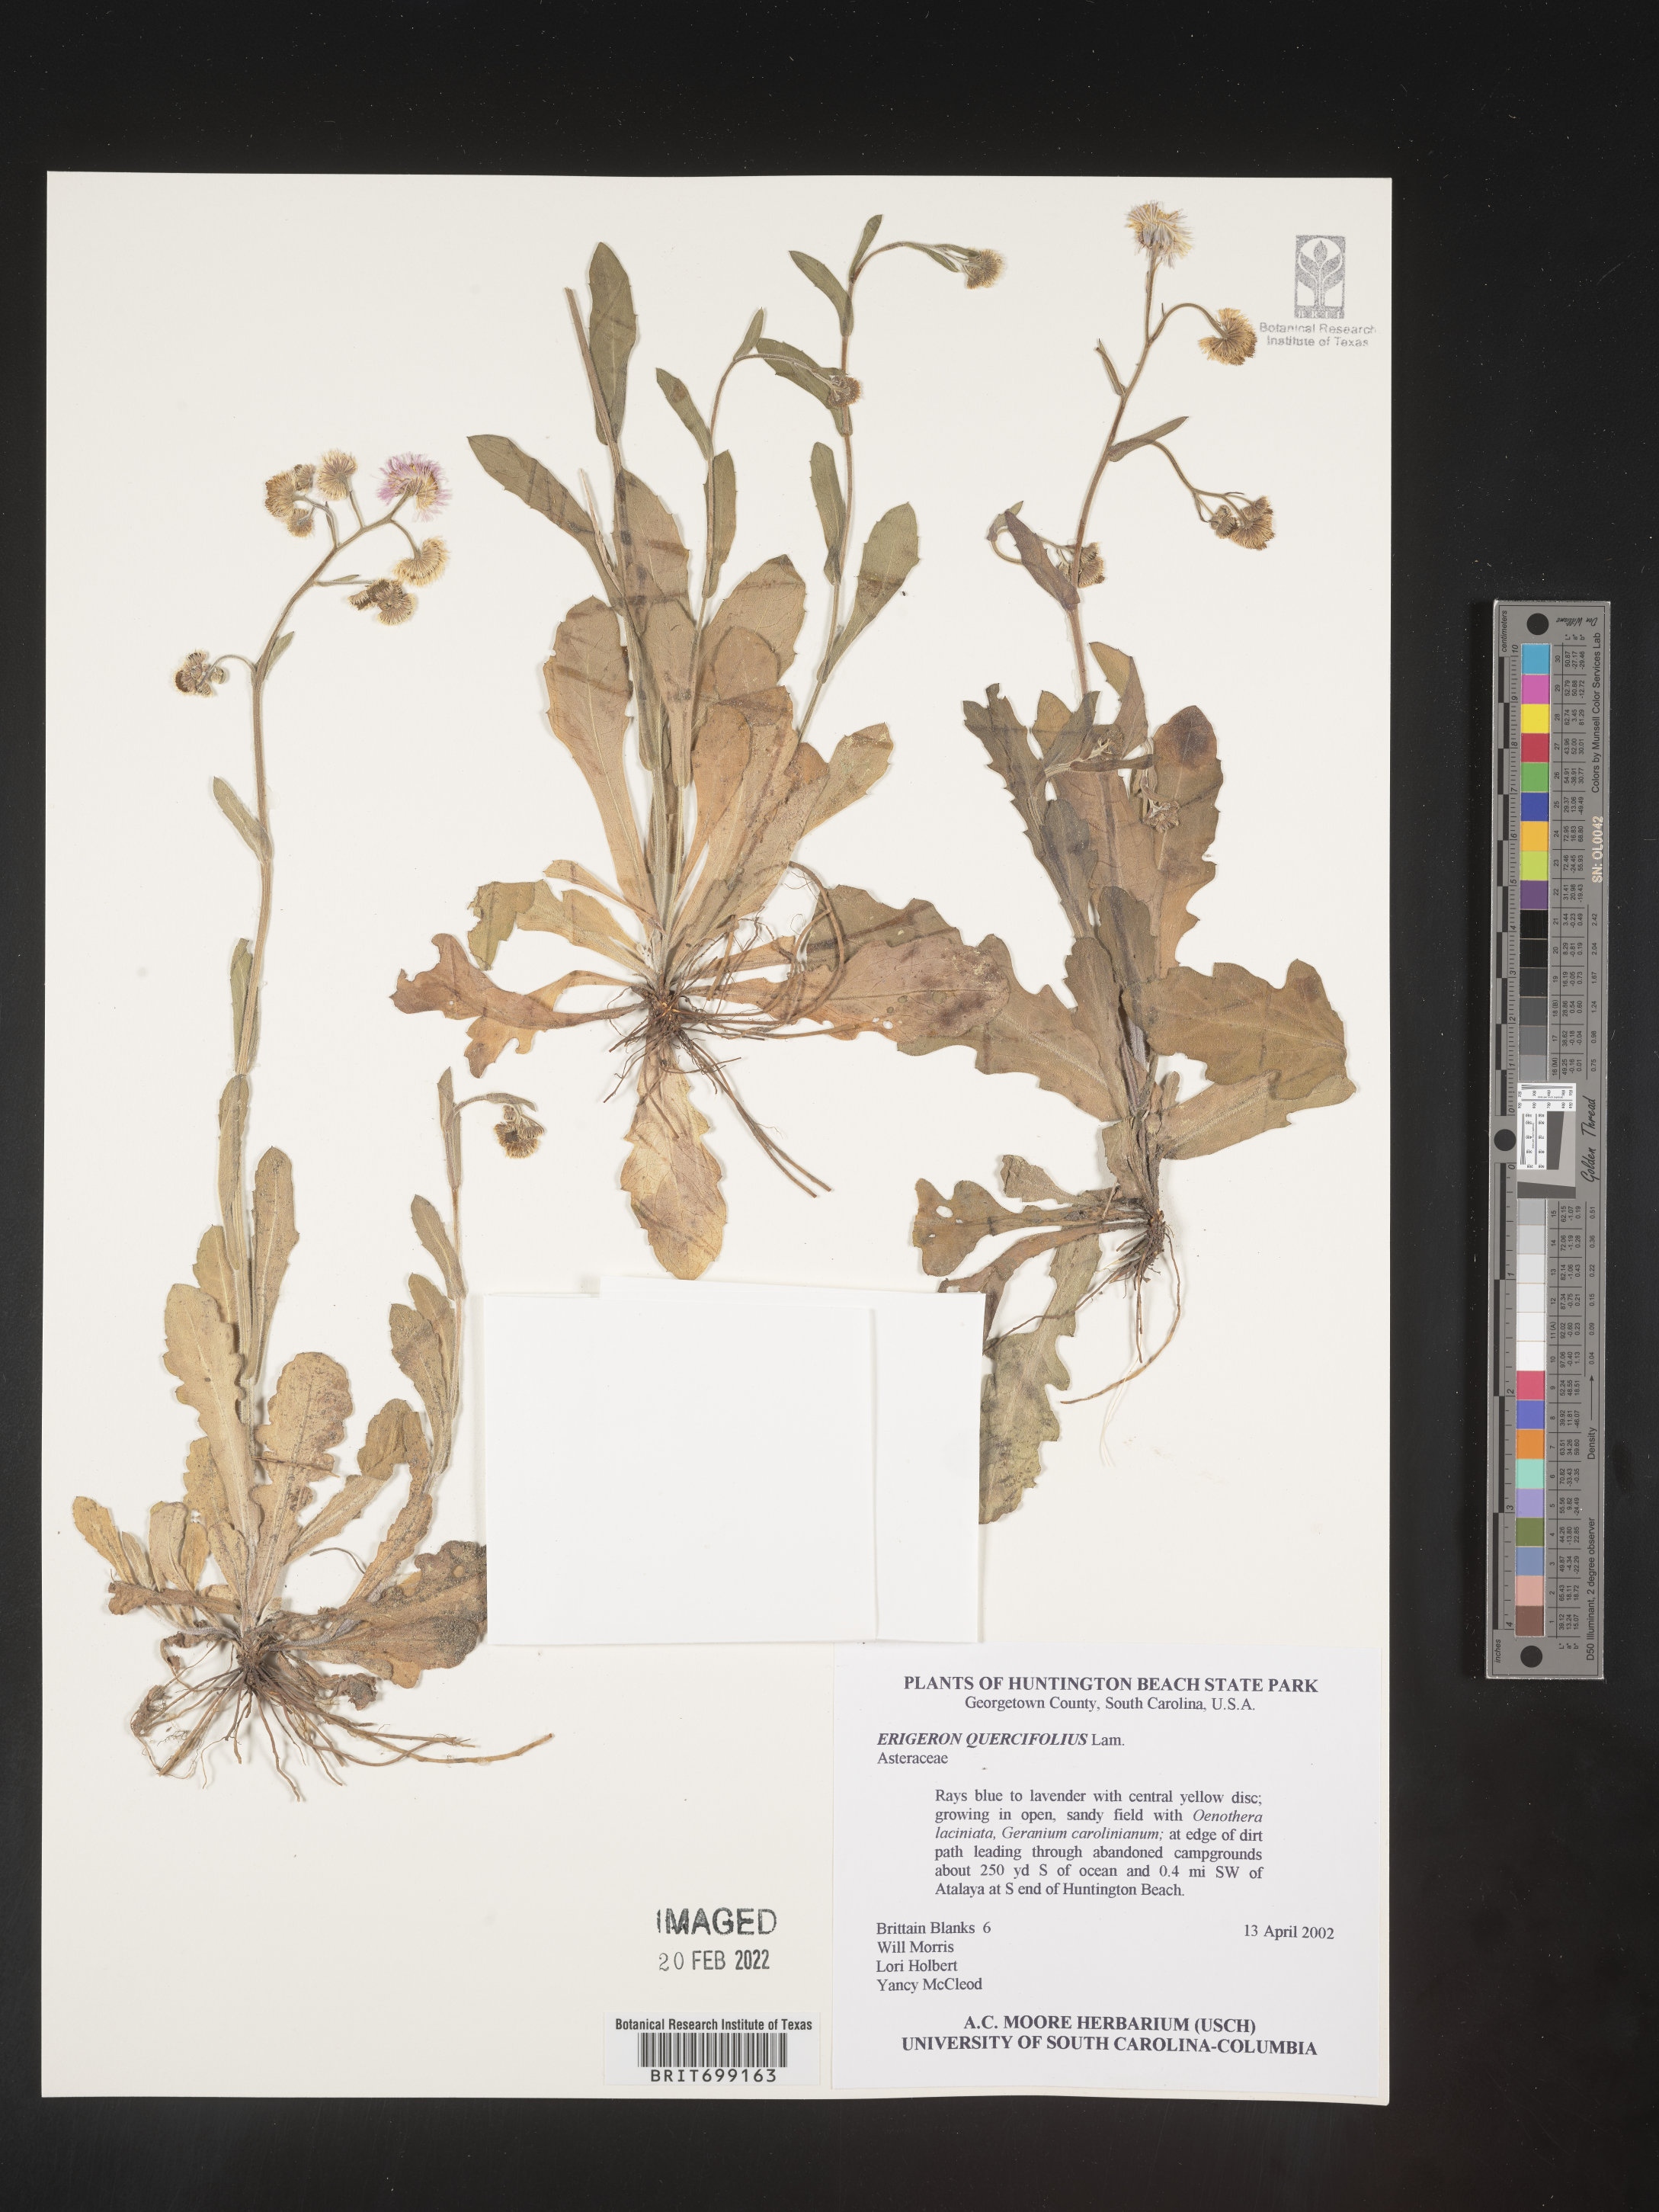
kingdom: Plantae
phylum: Tracheophyta
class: Magnoliopsida
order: Asterales
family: Asteraceae
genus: Erigeron
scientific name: Erigeron quercifolius
